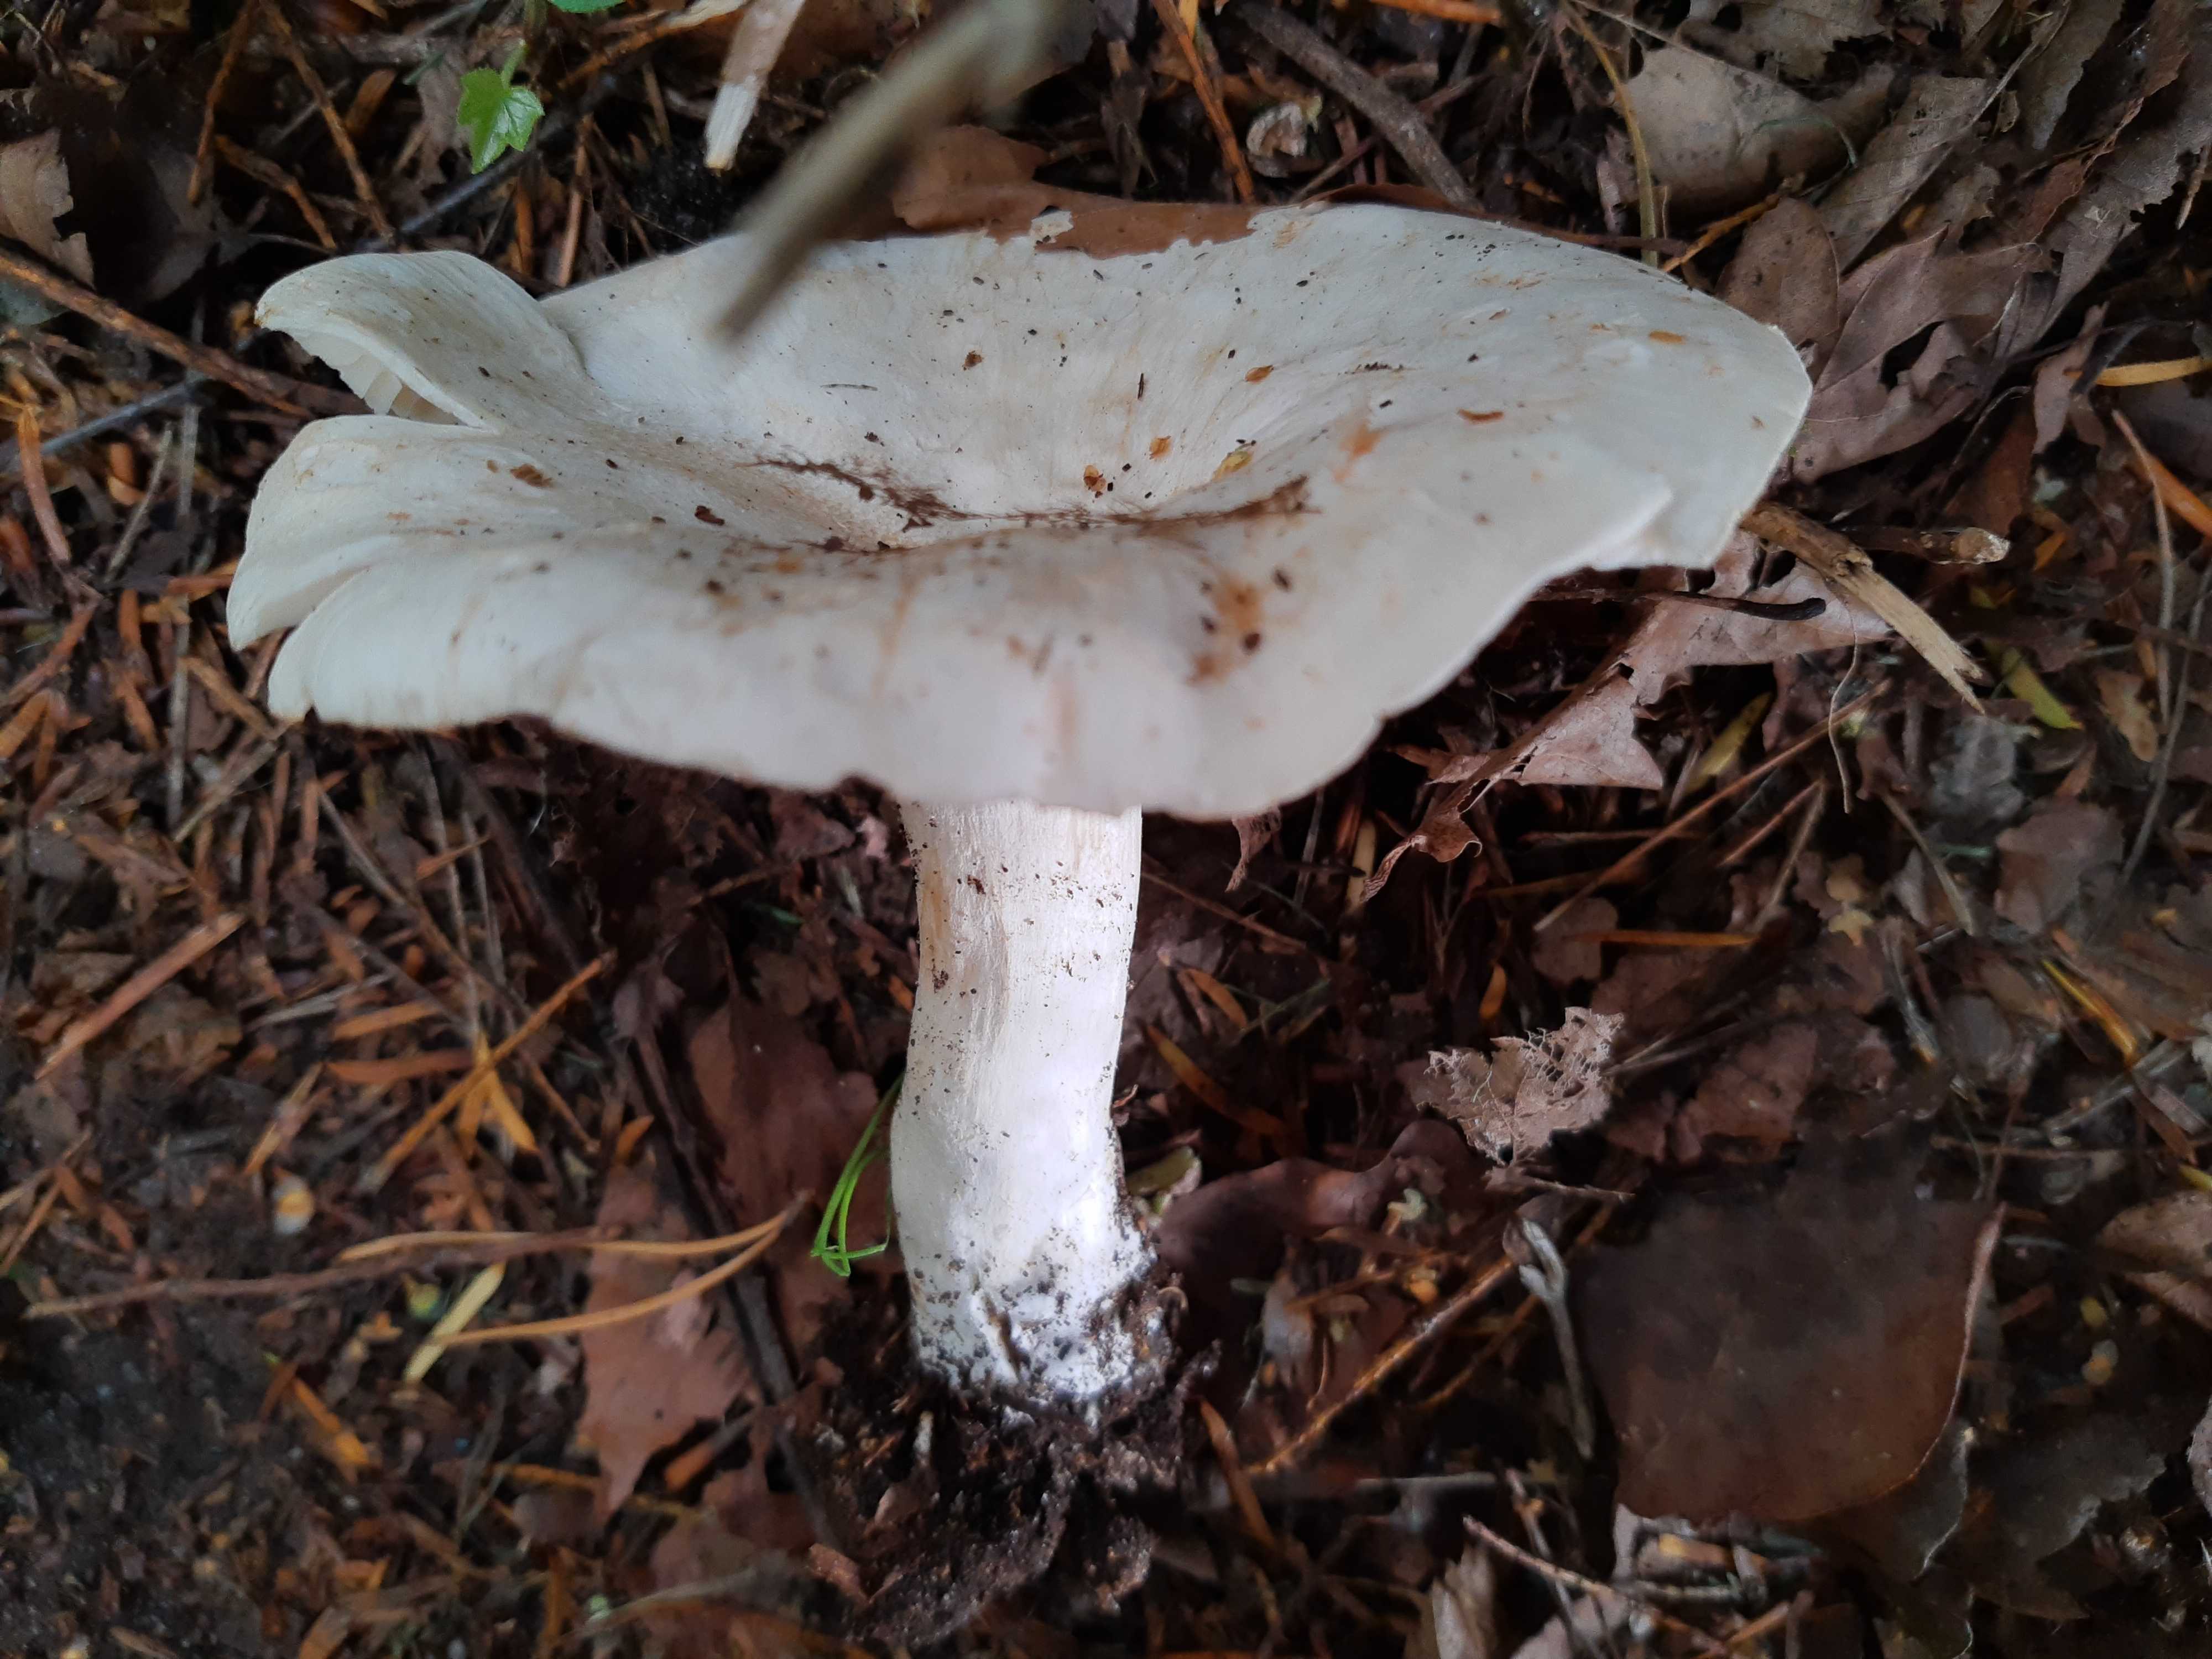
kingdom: Fungi
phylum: Basidiomycota
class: Agaricomycetes
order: Agaricales
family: Tricholomataceae
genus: Aspropaxillus
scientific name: Aspropaxillus giganteus
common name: kæmpe-tragtridderhat
